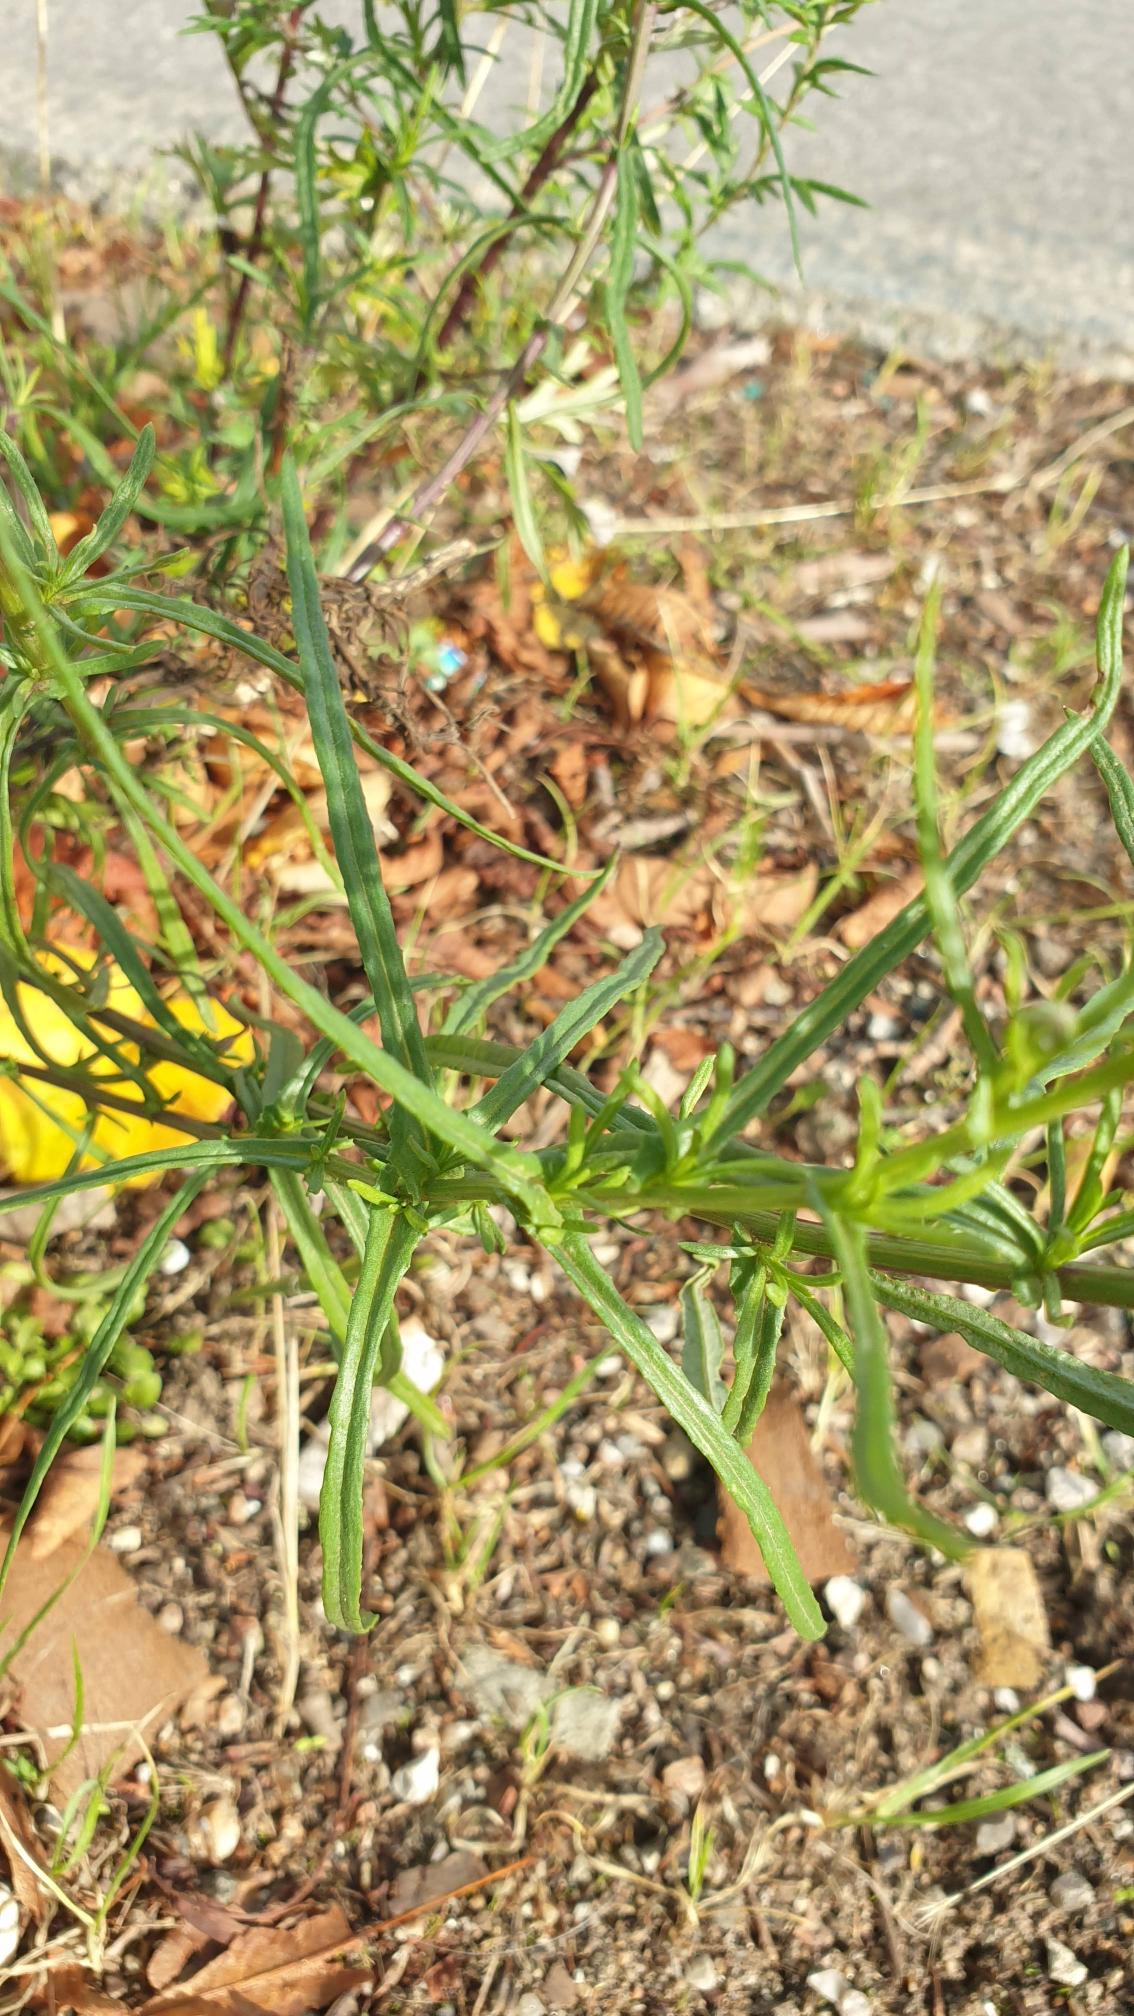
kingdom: Plantae
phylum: Tracheophyta
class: Magnoliopsida
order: Asterales
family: Asteraceae
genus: Senecio
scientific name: Senecio inaequidens
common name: Smalbladet brandbæger
